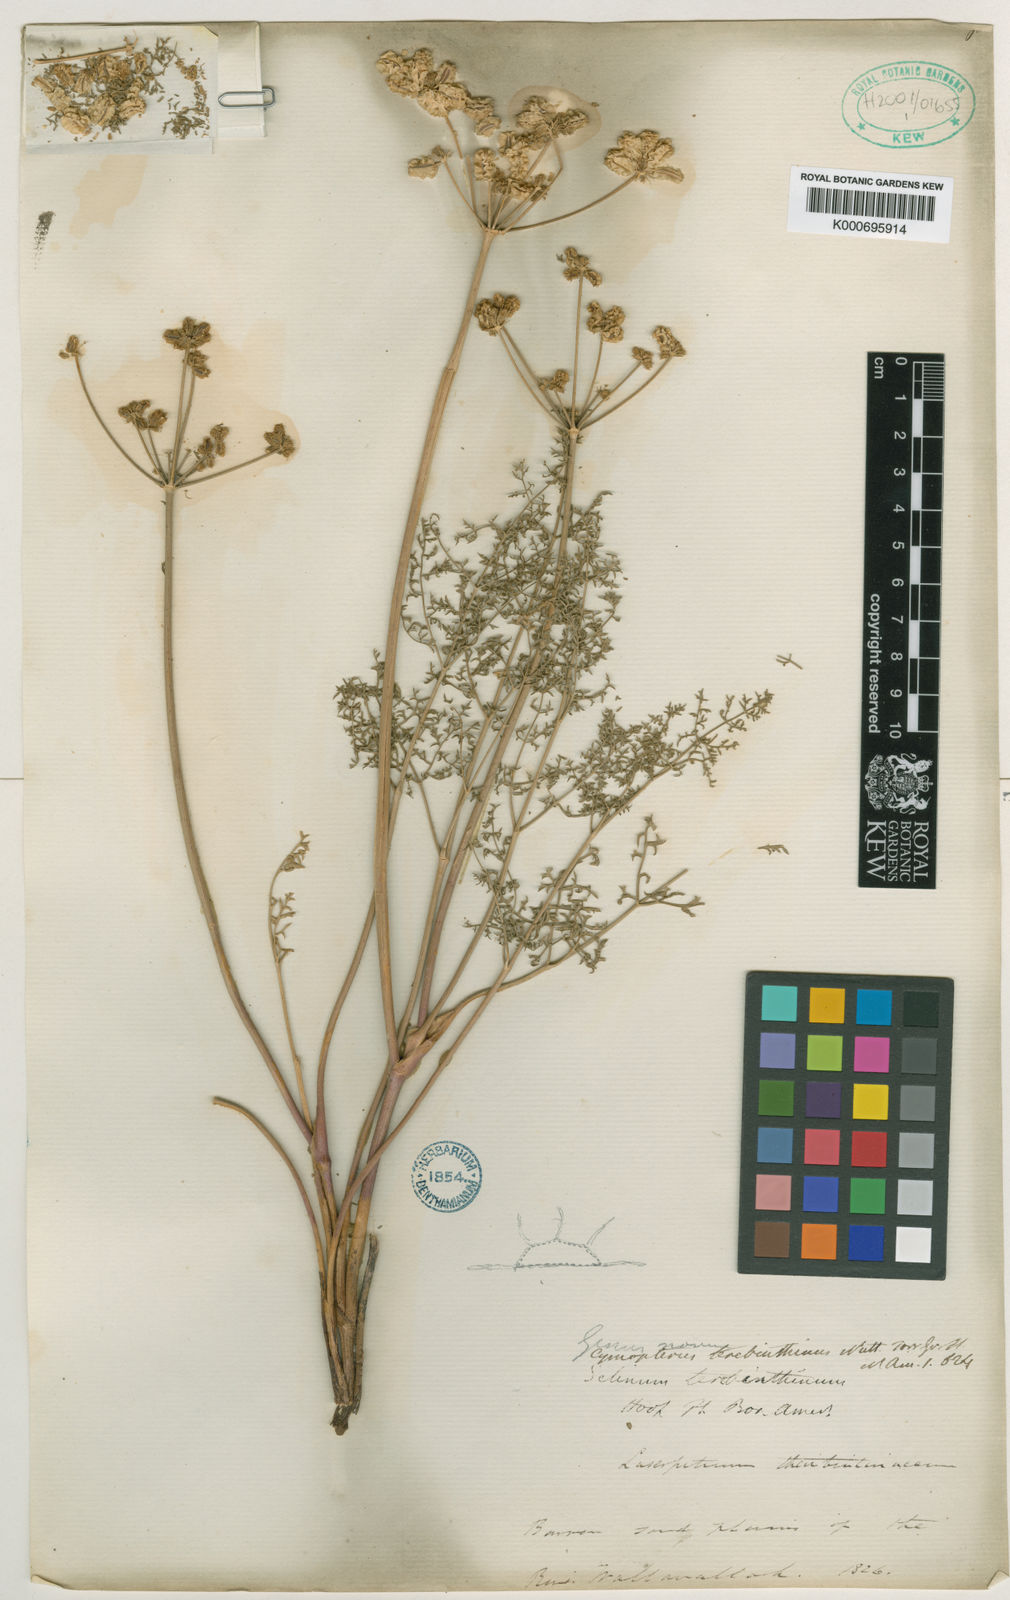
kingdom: Plantae
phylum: Tracheophyta
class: Magnoliopsida
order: Apiales
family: Apiaceae
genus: Pteryxia
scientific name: Pteryxia terebinthina
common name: Turpentine wavewing
